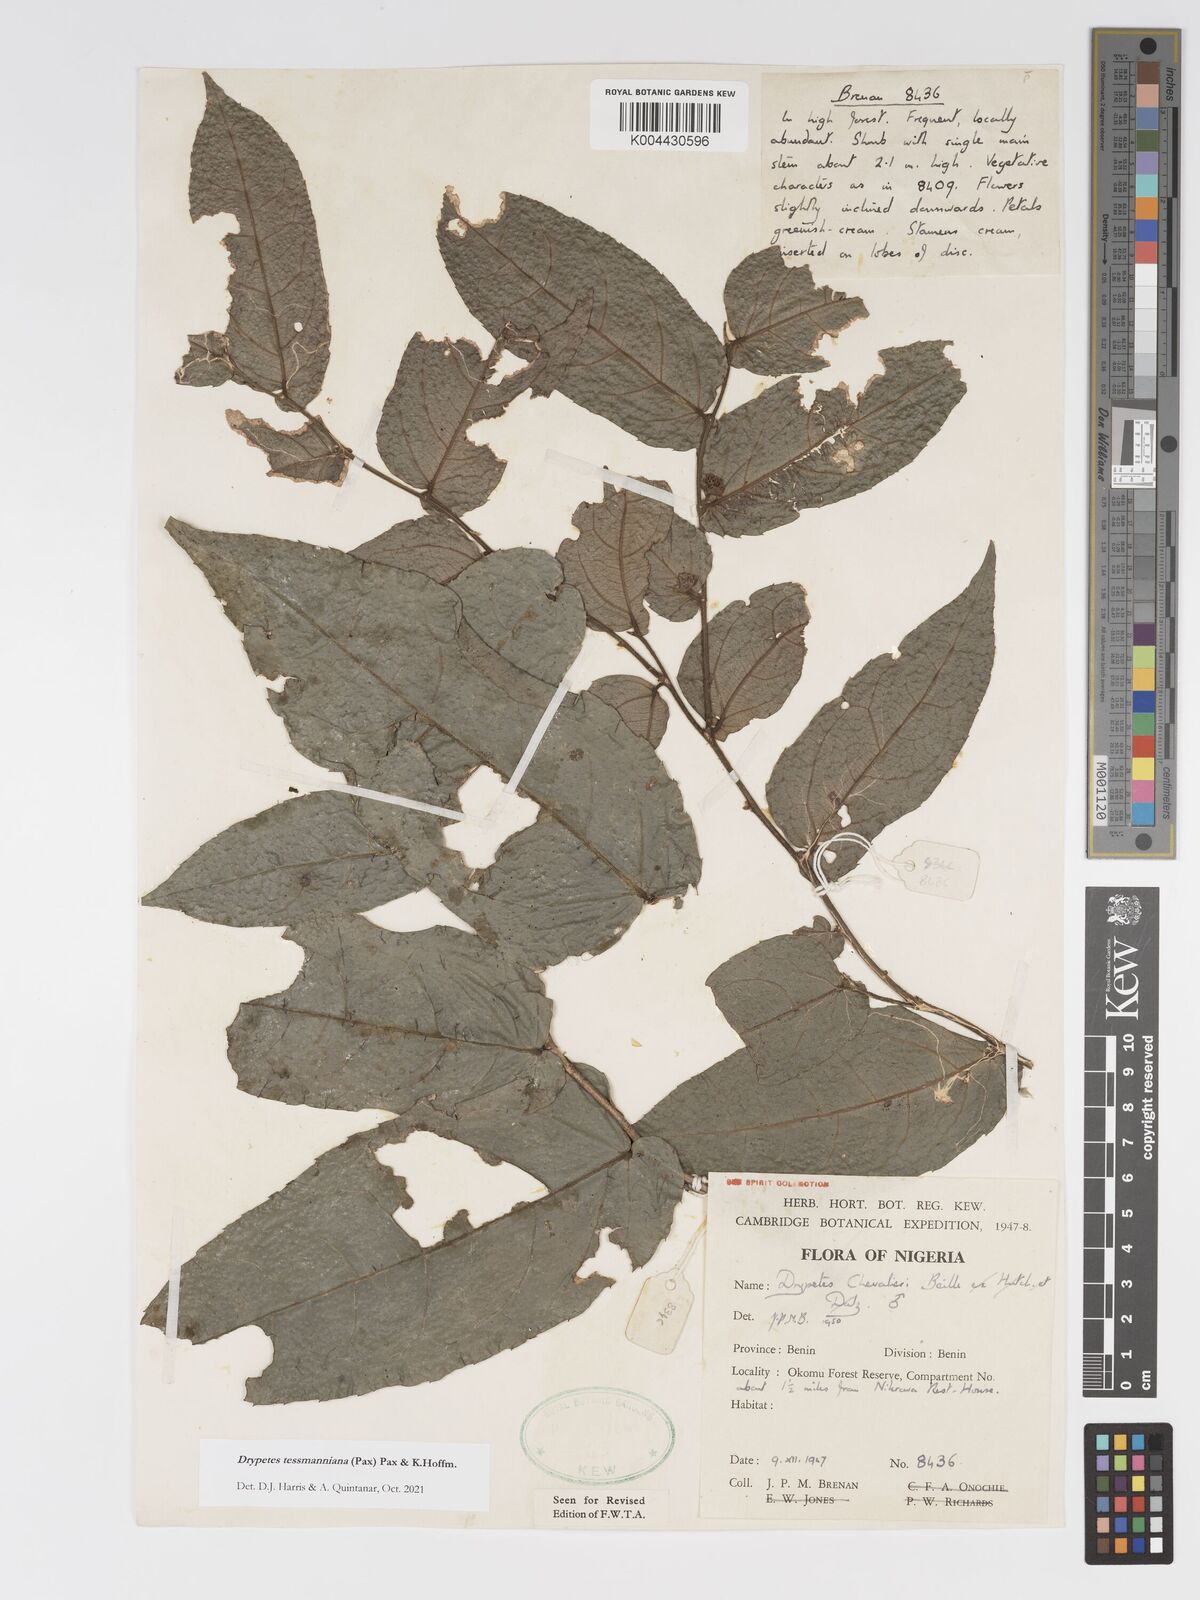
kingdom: Plantae
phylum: Tracheophyta
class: Magnoliopsida
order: Malpighiales
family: Putranjivaceae
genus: Drypetes
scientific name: Drypetes tessmanniana
